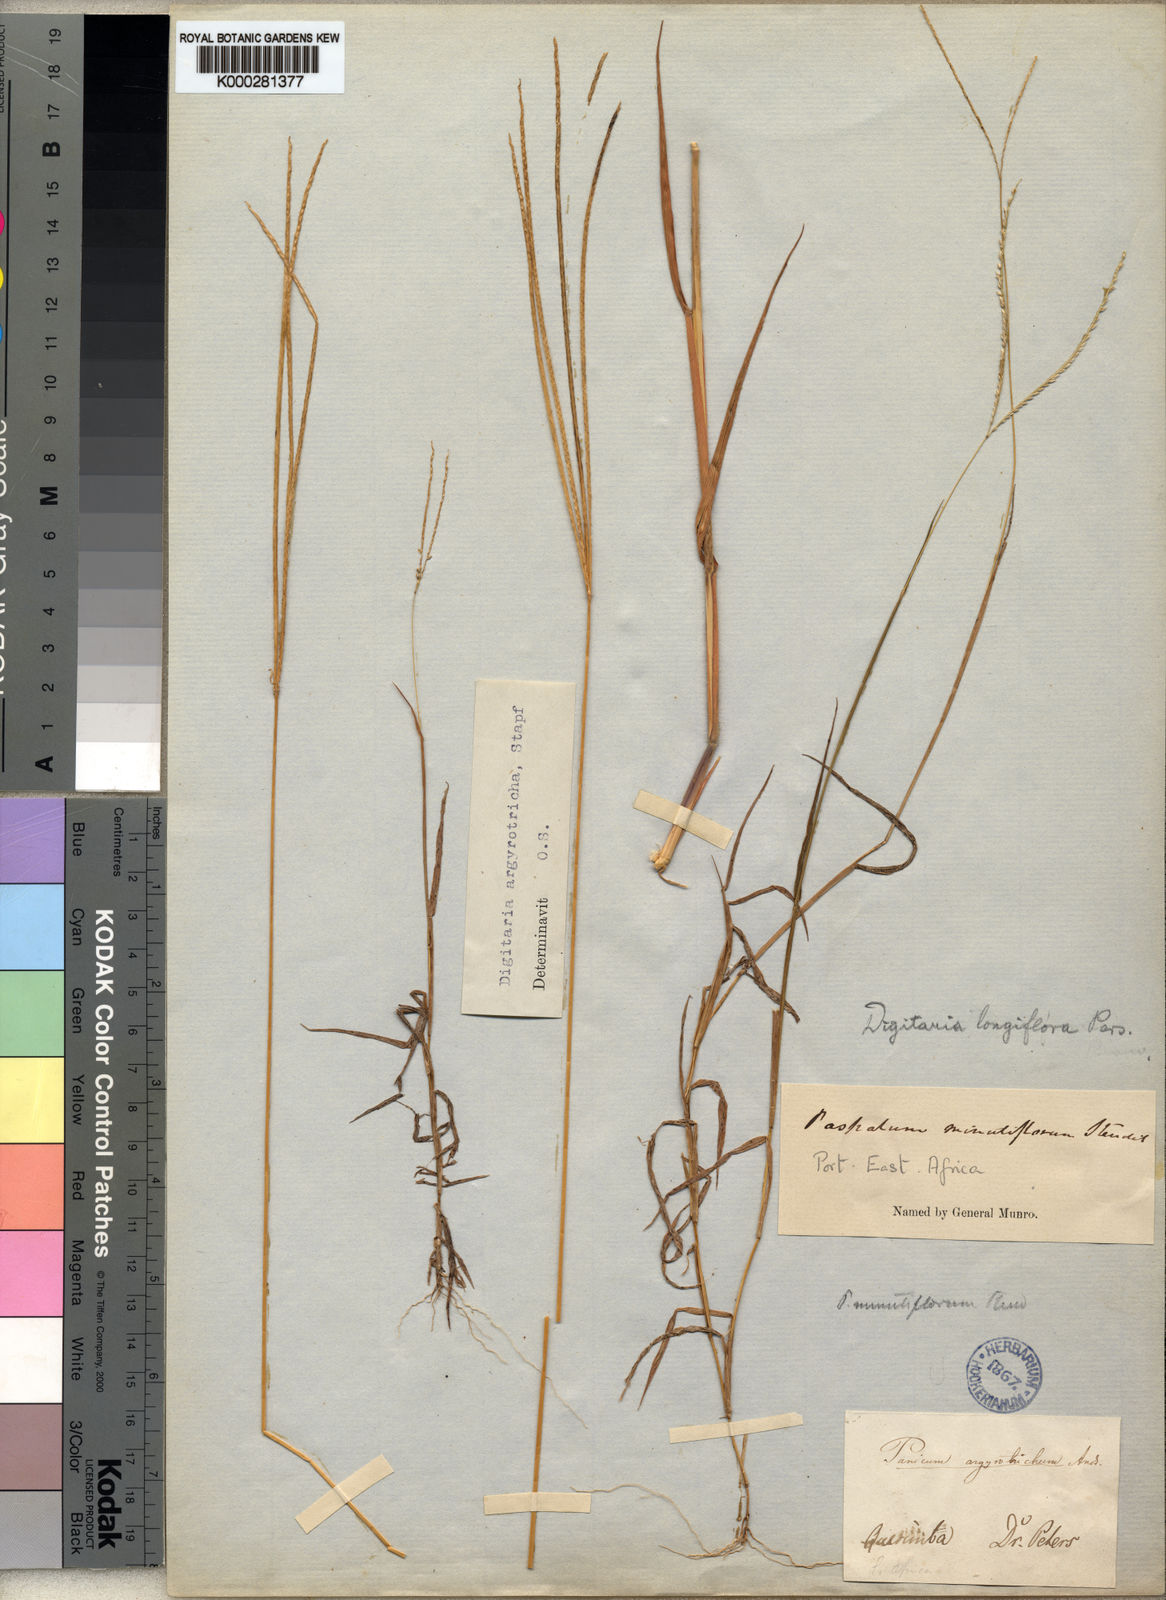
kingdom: Plantae
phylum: Tracheophyta
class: Liliopsida
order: Poales
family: Poaceae
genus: Digitaria
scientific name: Digitaria argyrotricha
